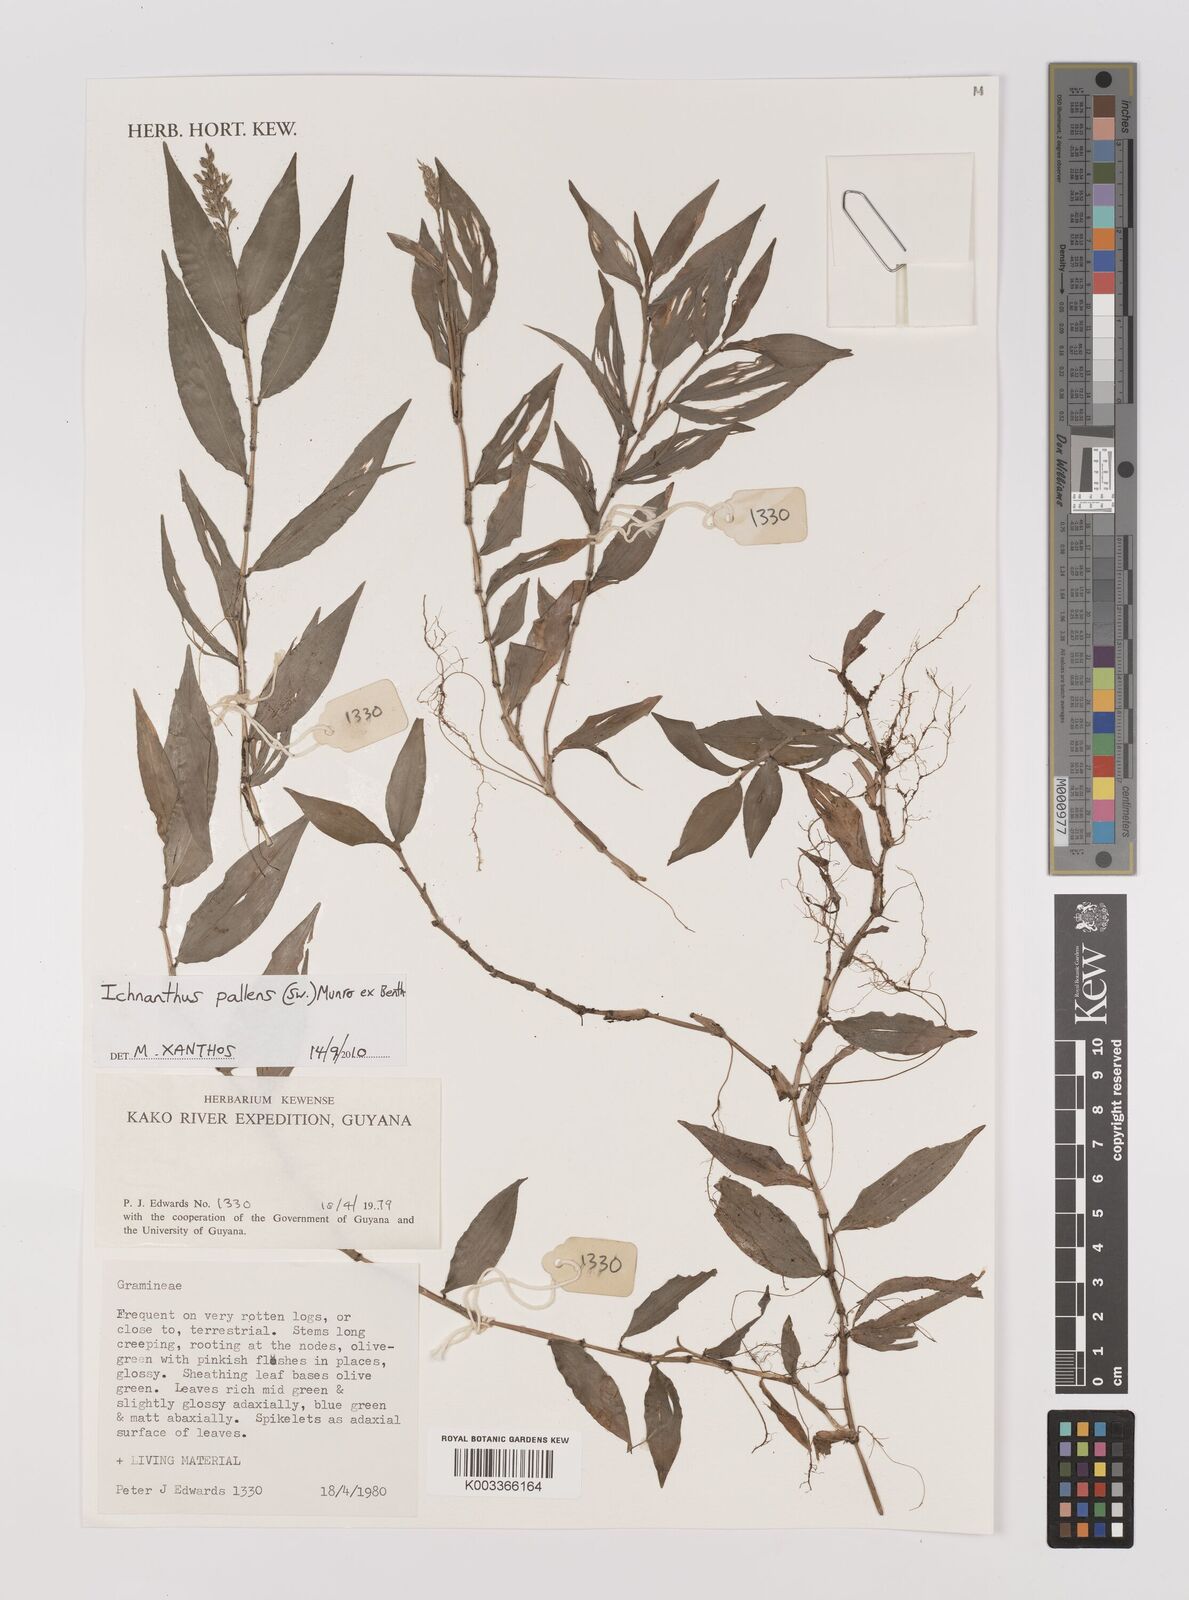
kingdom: Plantae
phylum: Tracheophyta
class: Liliopsida
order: Poales
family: Poaceae
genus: Ichnanthus
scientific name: Ichnanthus pallens
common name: Water grass
